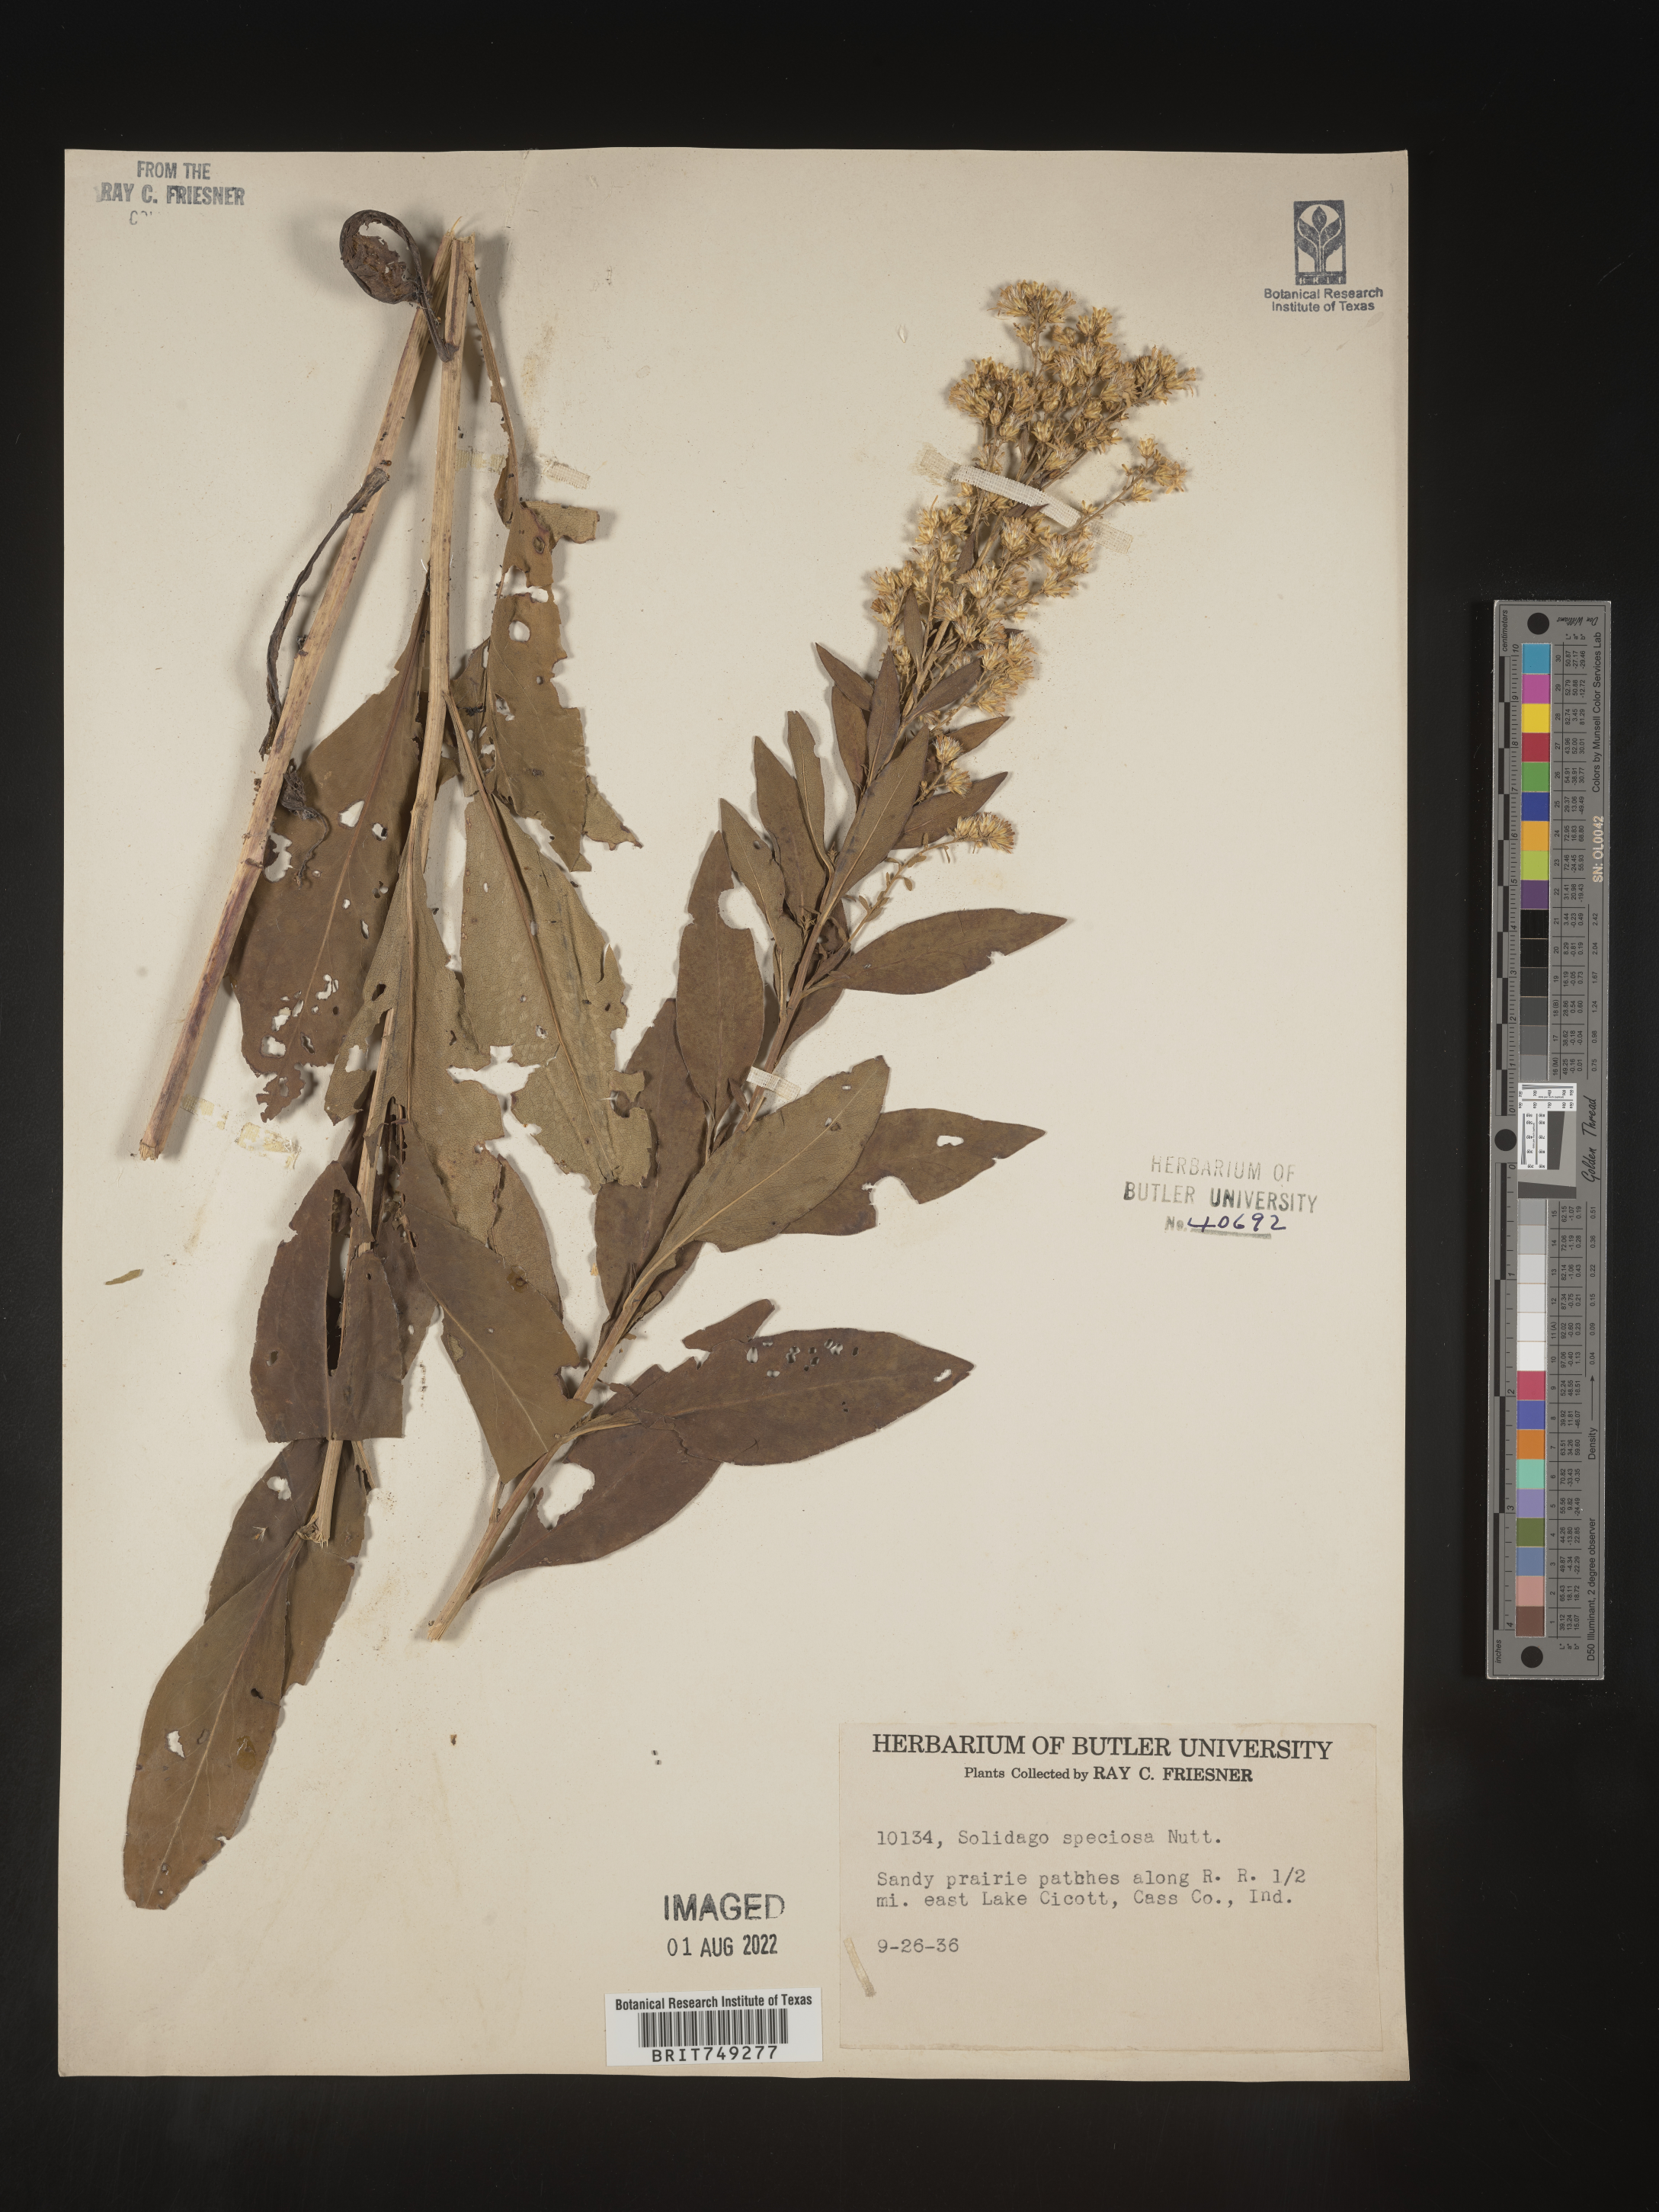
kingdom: Plantae
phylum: Tracheophyta
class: Magnoliopsida
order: Asterales
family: Asteraceae
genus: Solidago
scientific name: Solidago speciosa
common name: Showy goldenrod
